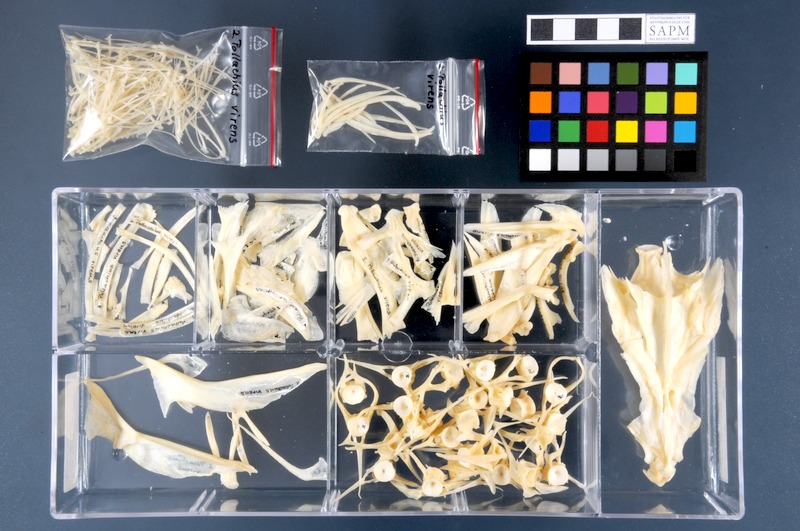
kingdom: Animalia
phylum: Chordata
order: Gadiformes
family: Gadidae
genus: Pollachius
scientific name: Pollachius virens
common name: Saithe
